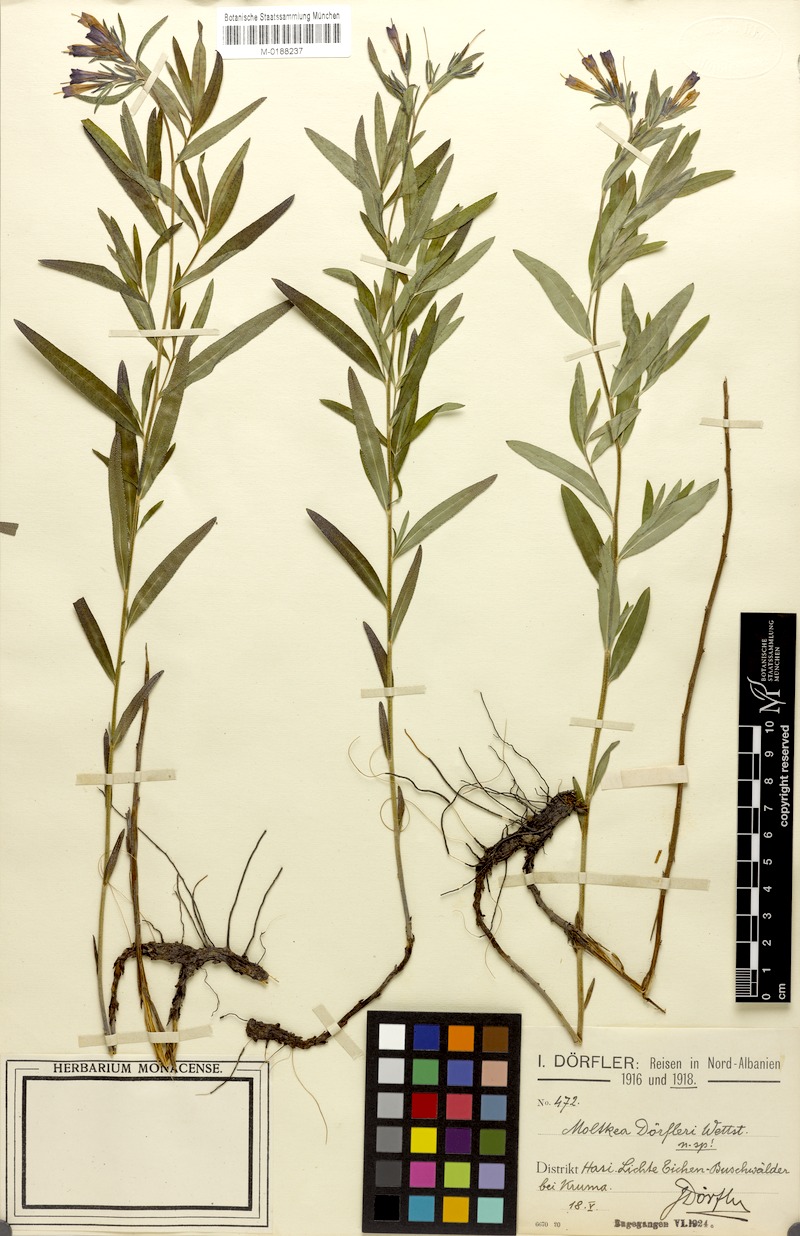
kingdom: Plantae
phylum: Tracheophyta
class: Magnoliopsida
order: Boraginales
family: Boraginaceae
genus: Paramoltkia
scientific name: Paramoltkia doerfleri
